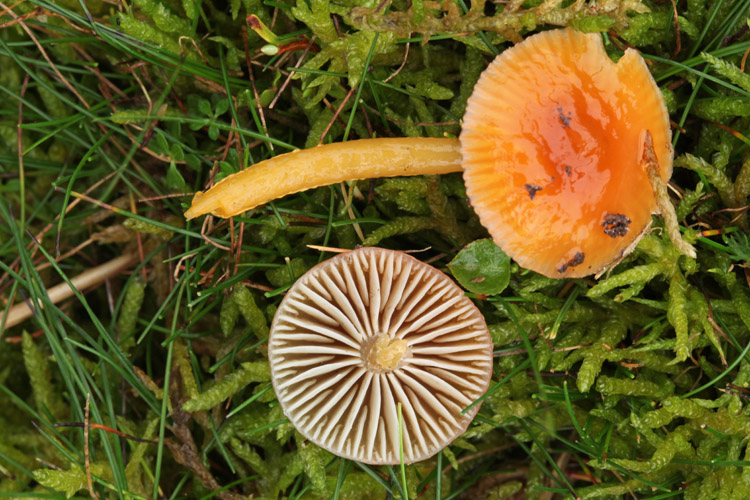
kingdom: Fungi
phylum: Basidiomycota
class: Agaricomycetes
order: Agaricales
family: Hygrophoraceae
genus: Gliophorus
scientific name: Gliophorus laetus
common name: brusk-vokshat
